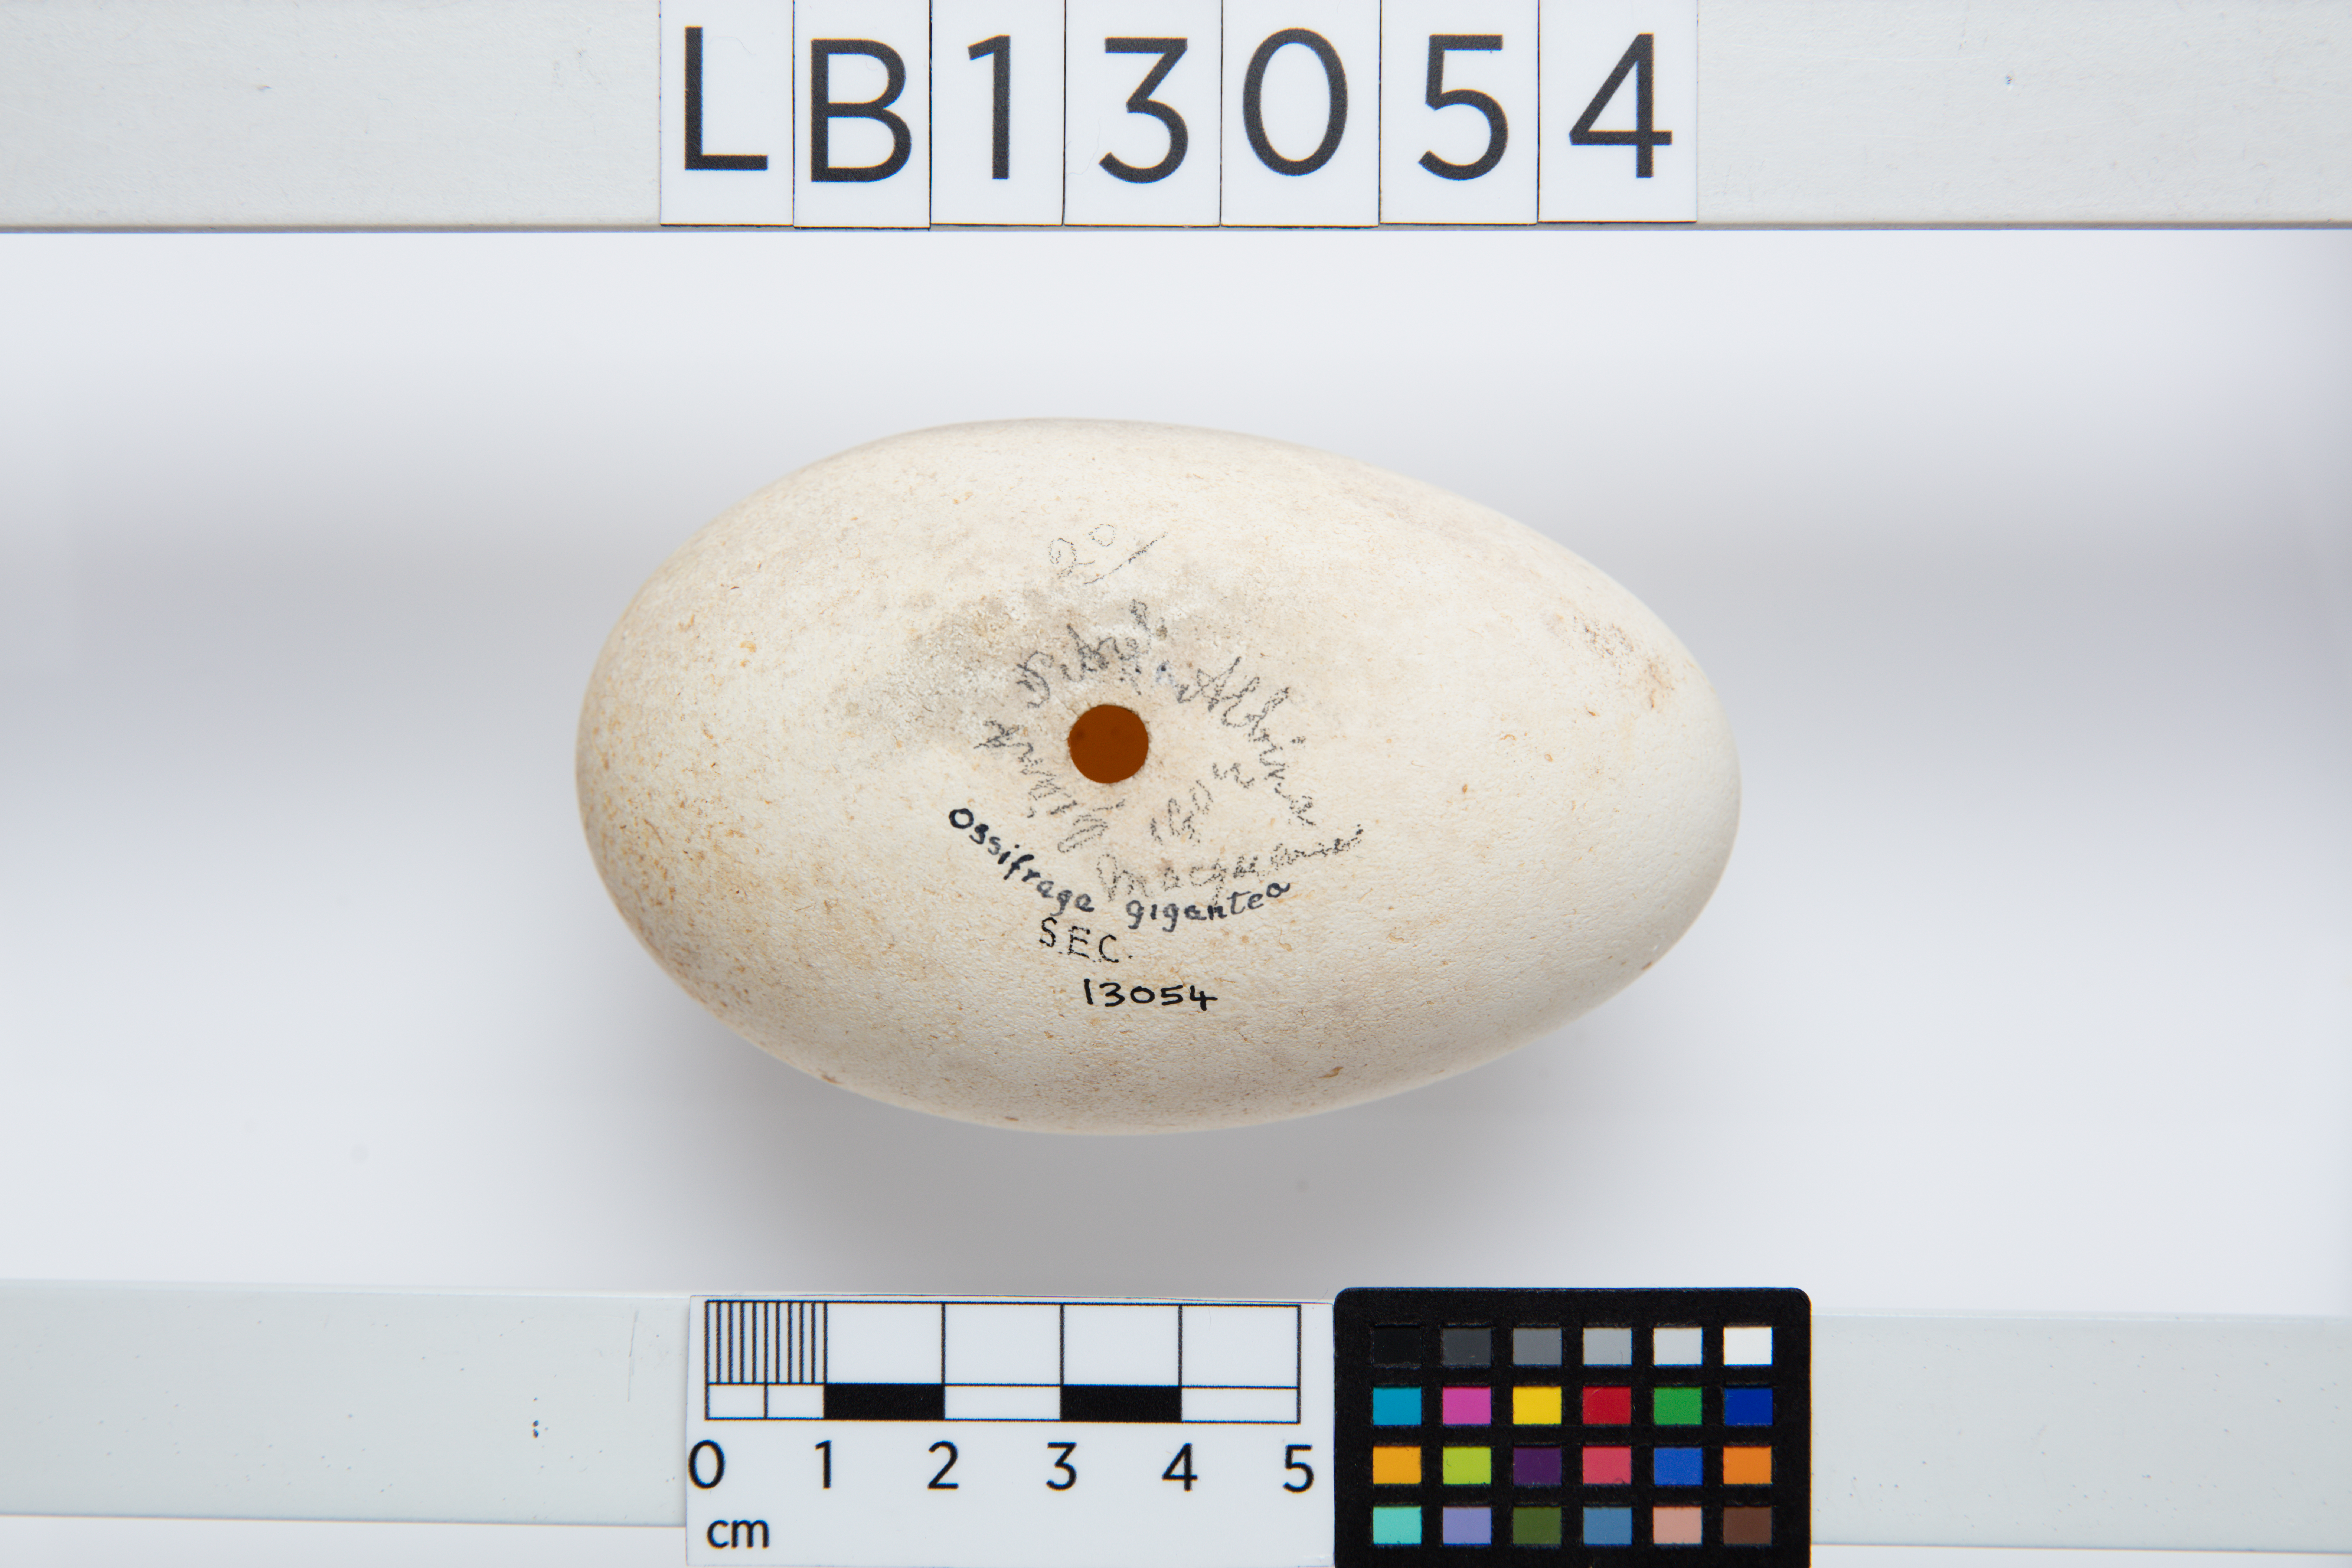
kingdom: Animalia
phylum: Chordata
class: Aves
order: Procellariiformes
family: Procellariidae
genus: Macronectes
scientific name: Macronectes halli
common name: Northern giant petrel
